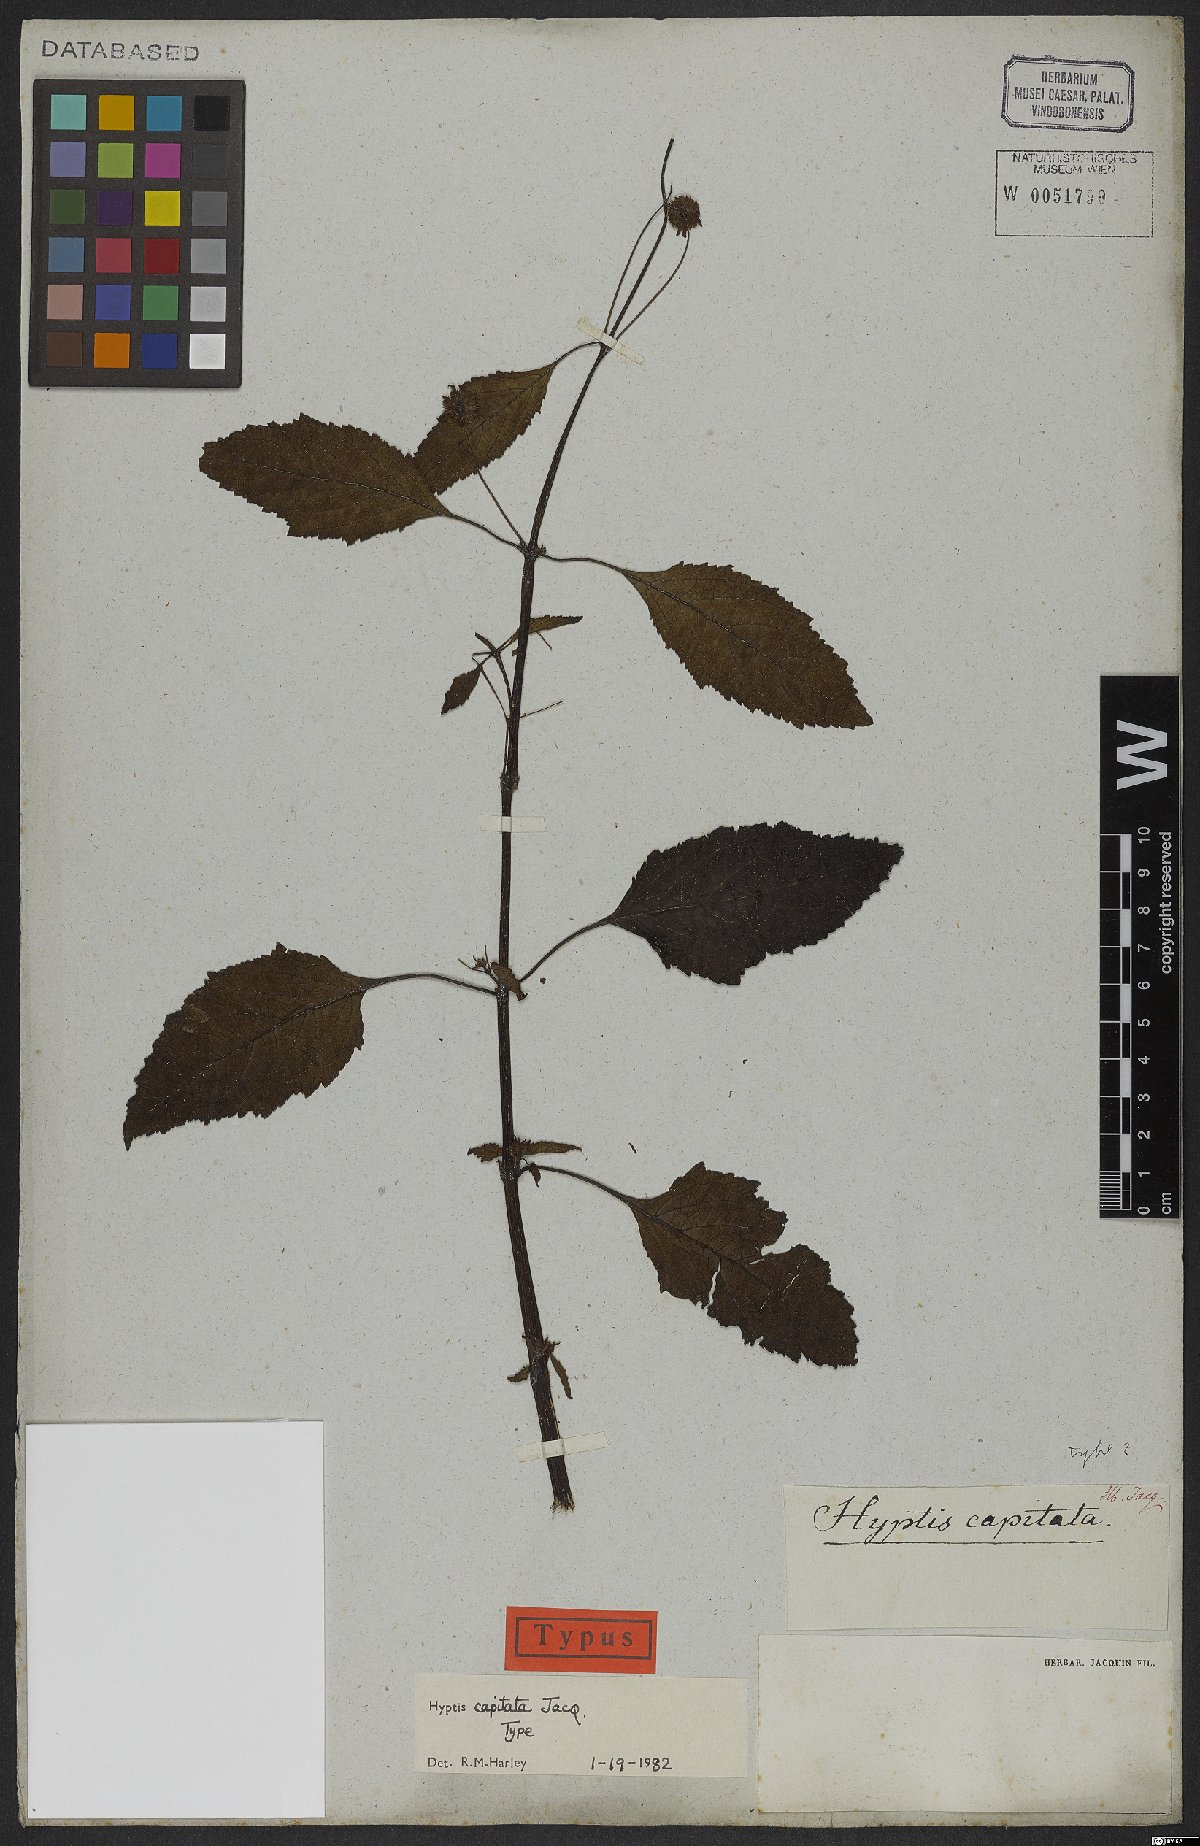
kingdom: Plantae
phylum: Tracheophyta
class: Magnoliopsida
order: Lamiales
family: Lamiaceae
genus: Hyptis
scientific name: Hyptis capitata
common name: False ironwort
